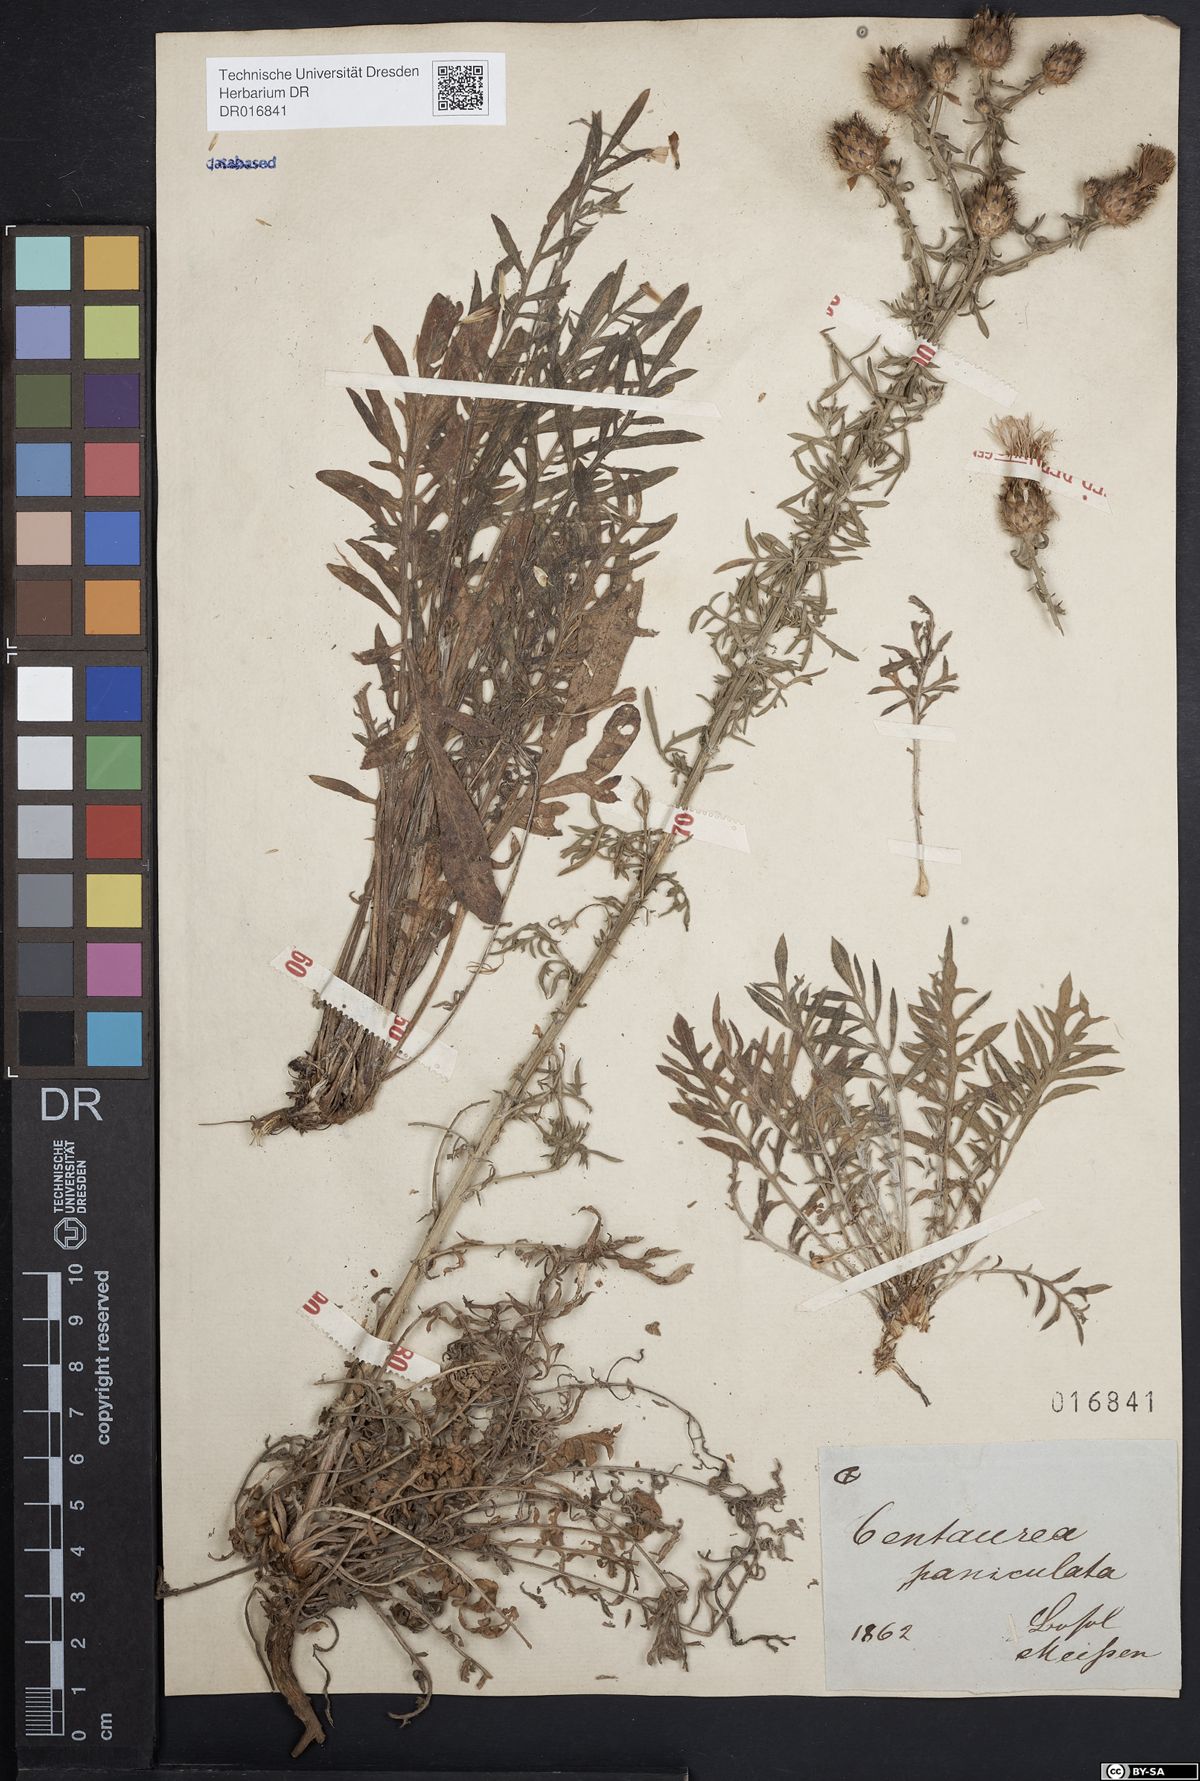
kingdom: Plantae
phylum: Tracheophyta
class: Magnoliopsida
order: Asterales
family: Asteraceae
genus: Centaurea
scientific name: Centaurea stoebe
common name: Spotted knapweed
